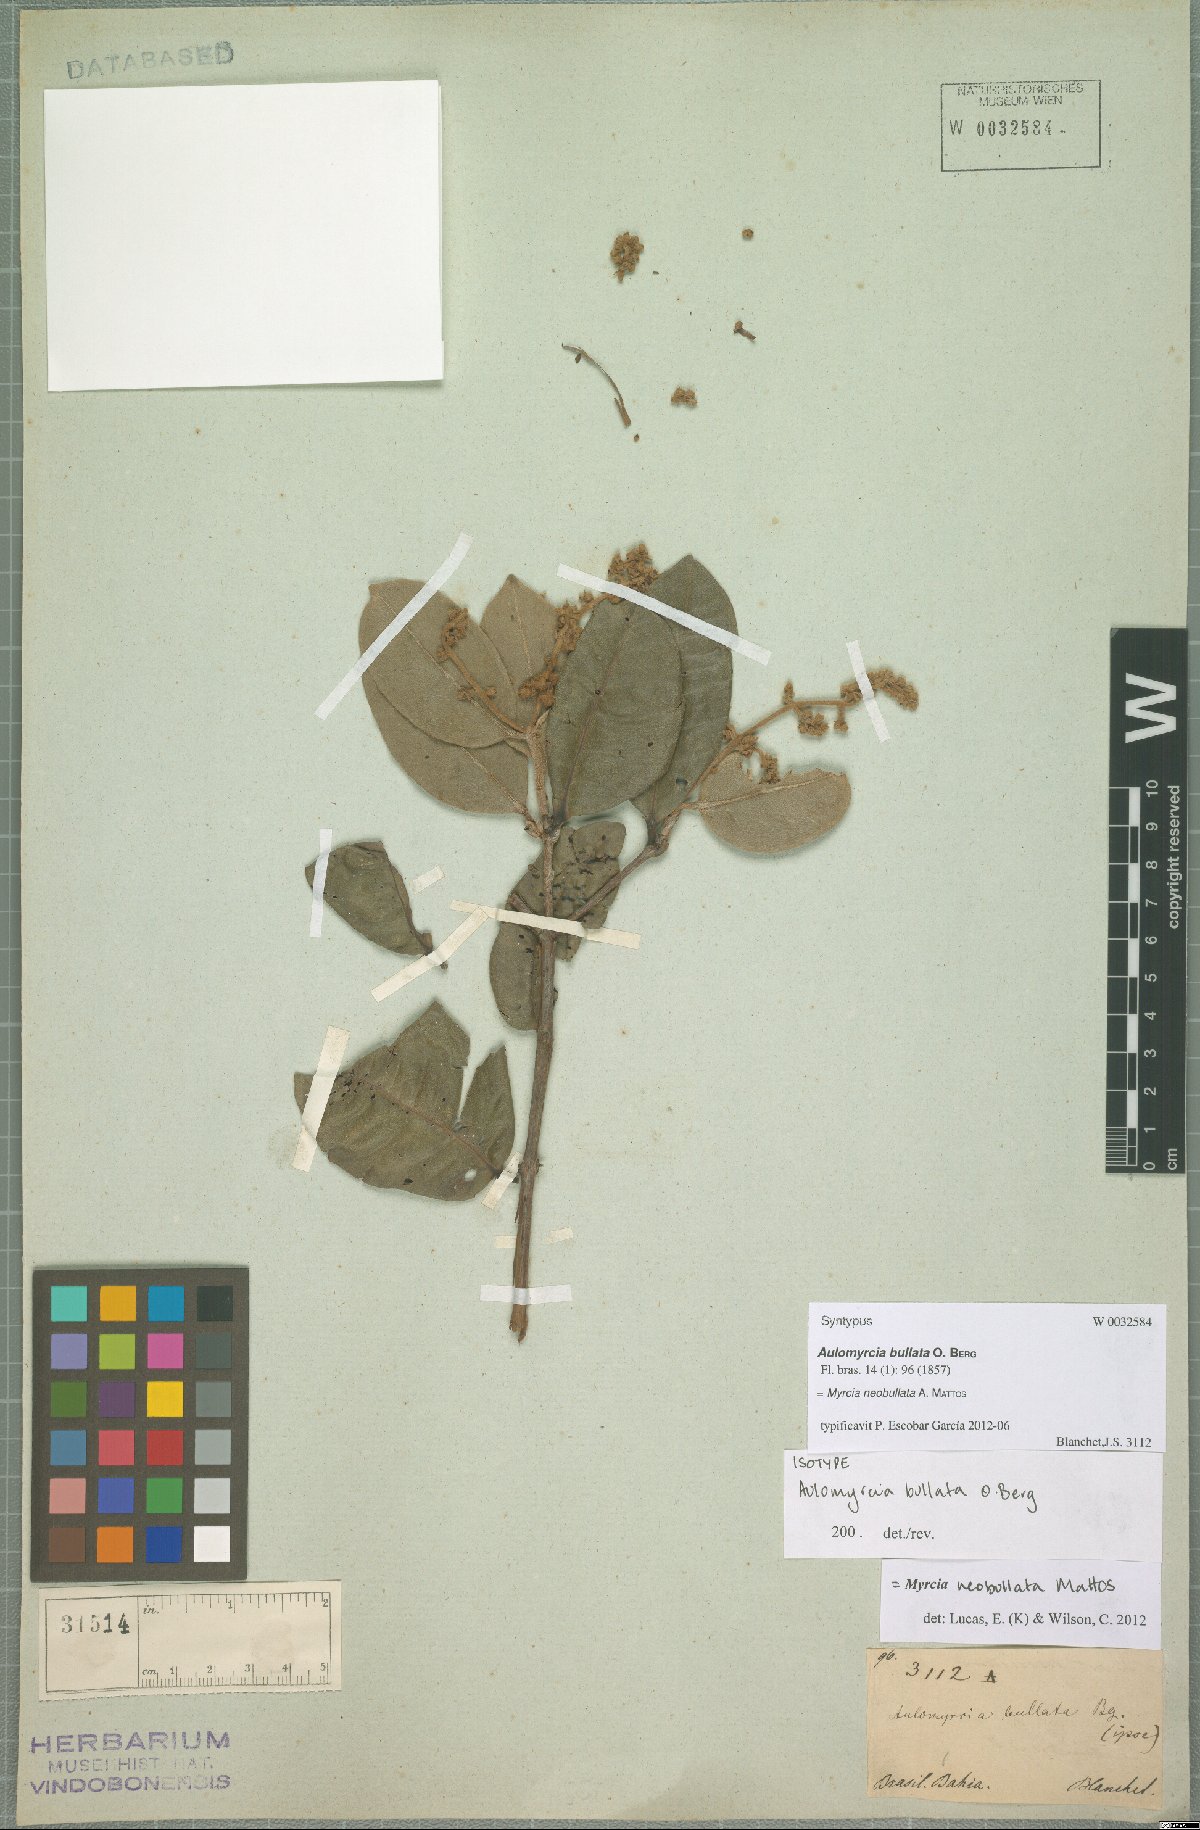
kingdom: Plantae
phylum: Tracheophyta
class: Magnoliopsida
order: Myrtales
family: Myrtaceae
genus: Myrcia
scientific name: Myrcia neobullata
